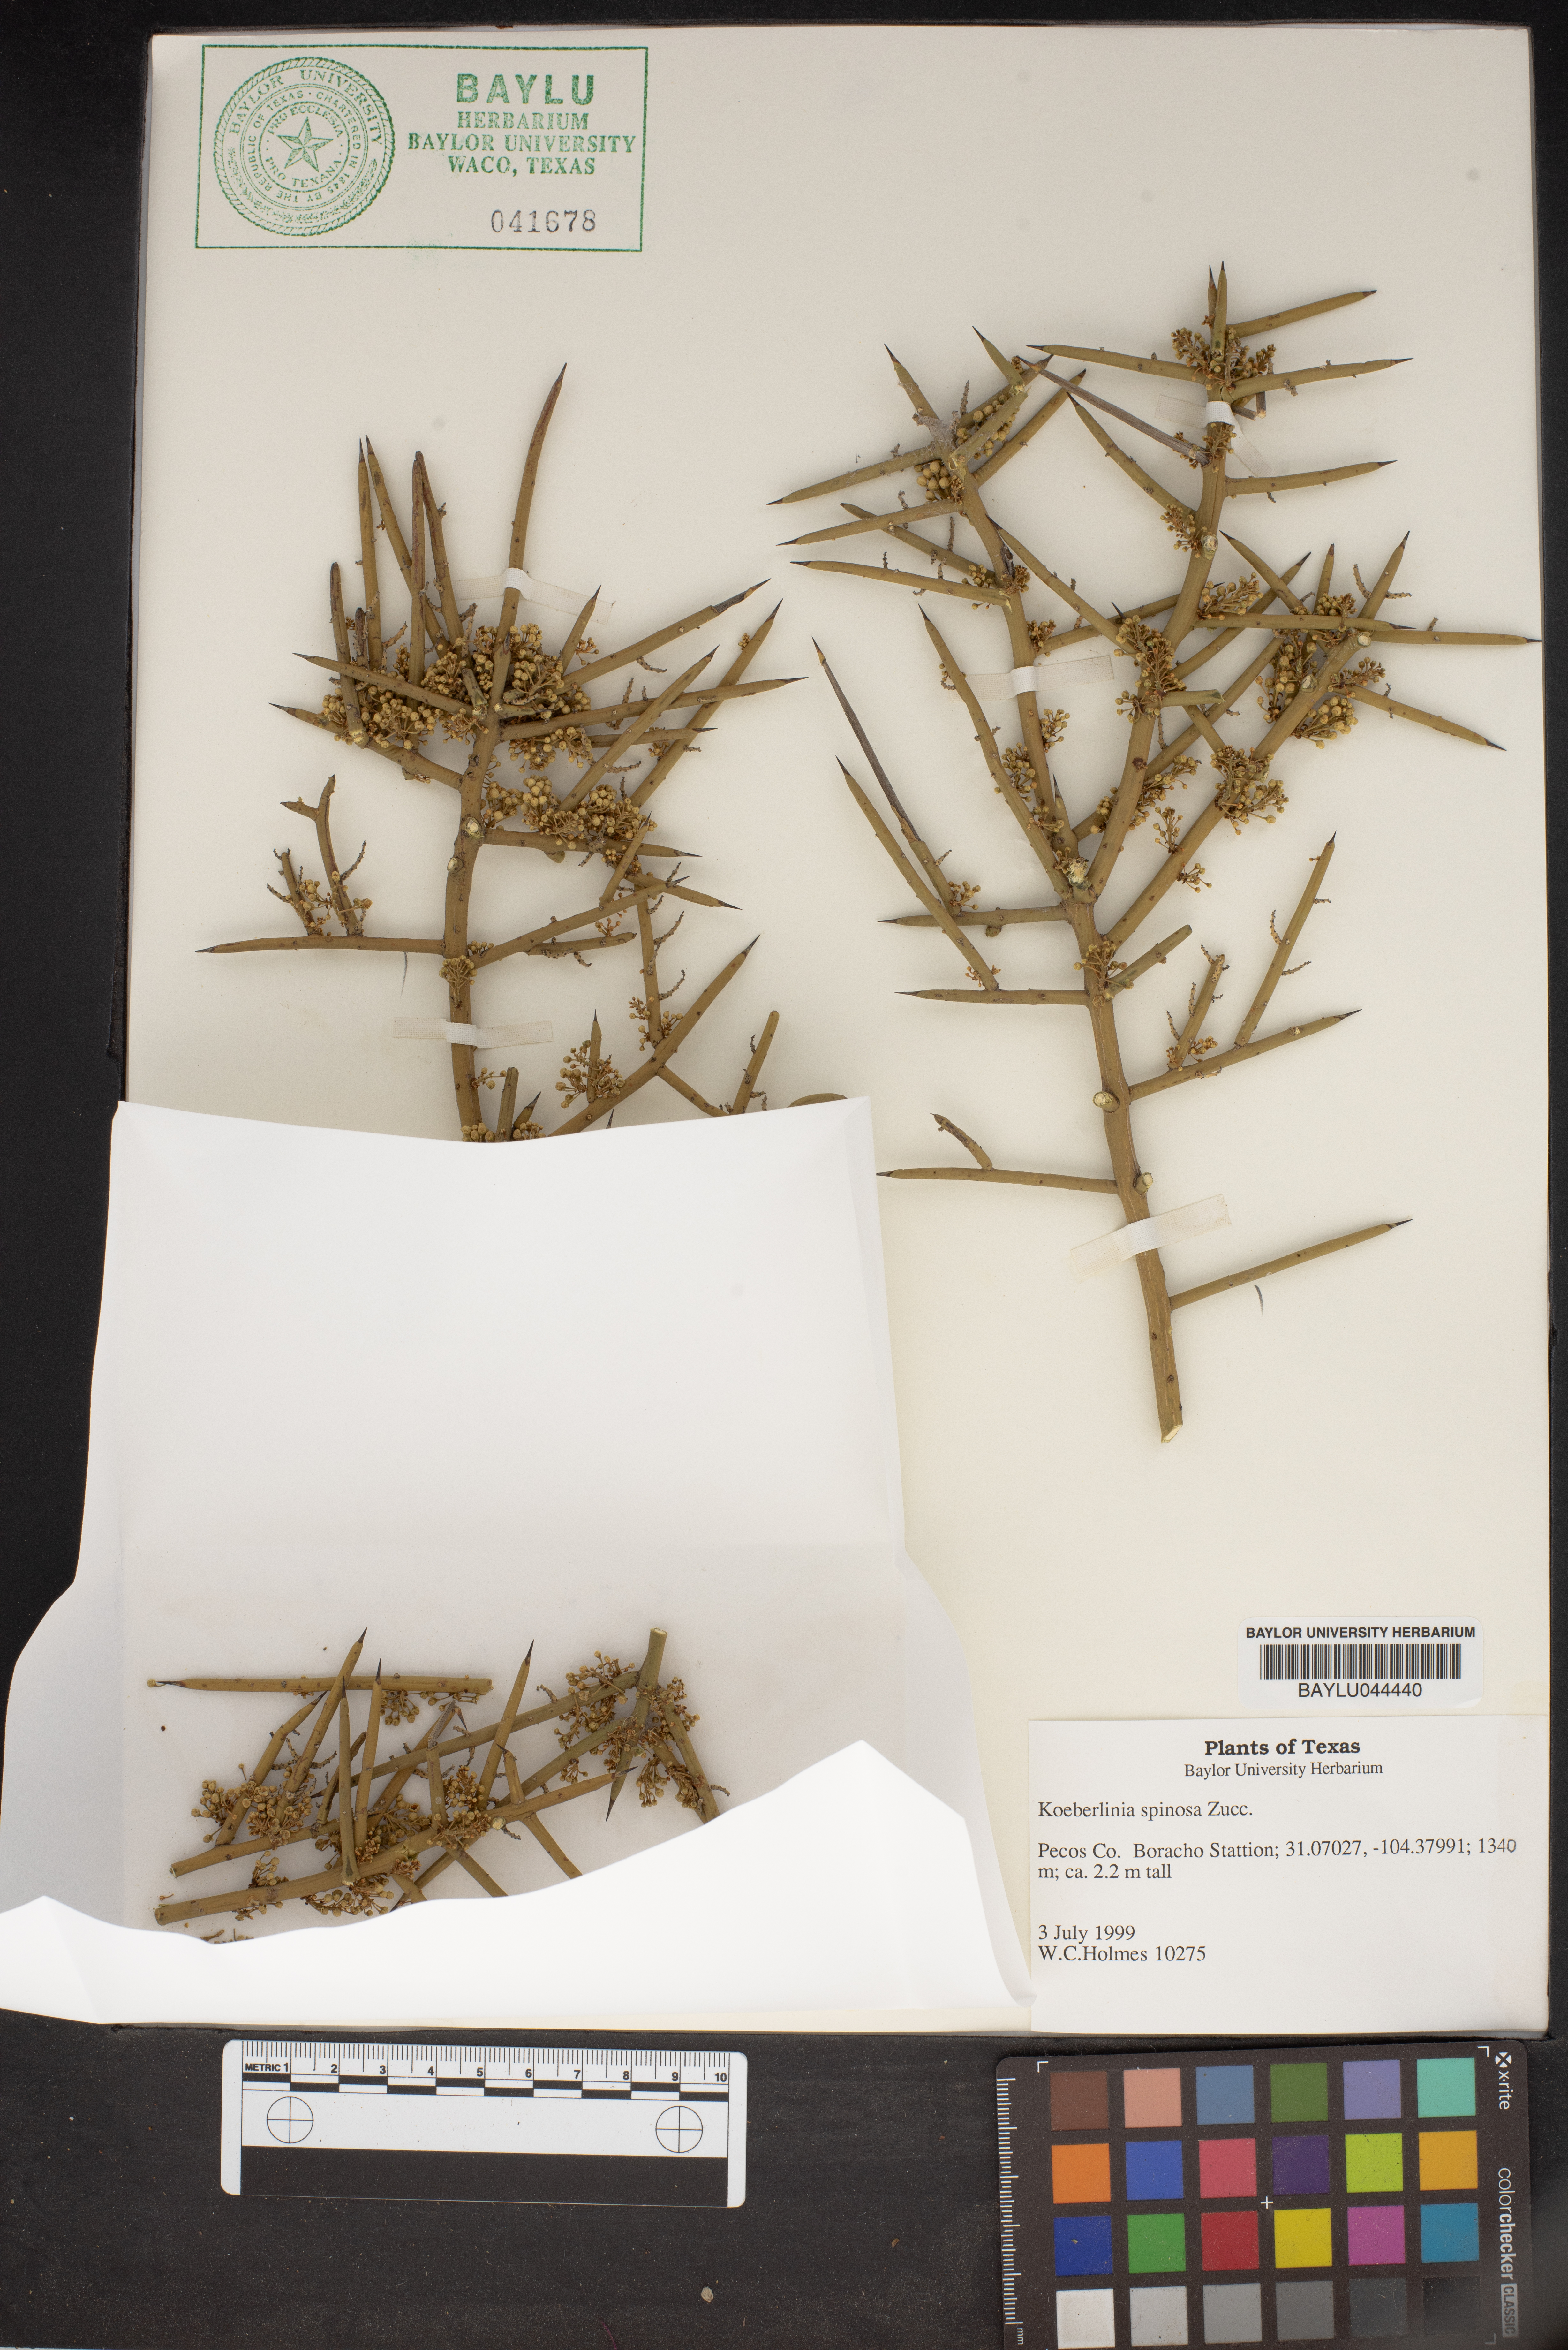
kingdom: Plantae
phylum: Tracheophyta
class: Magnoliopsida
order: Brassicales
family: Koeberliniaceae
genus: Koeberlinia
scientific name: Koeberlinia spinosa
